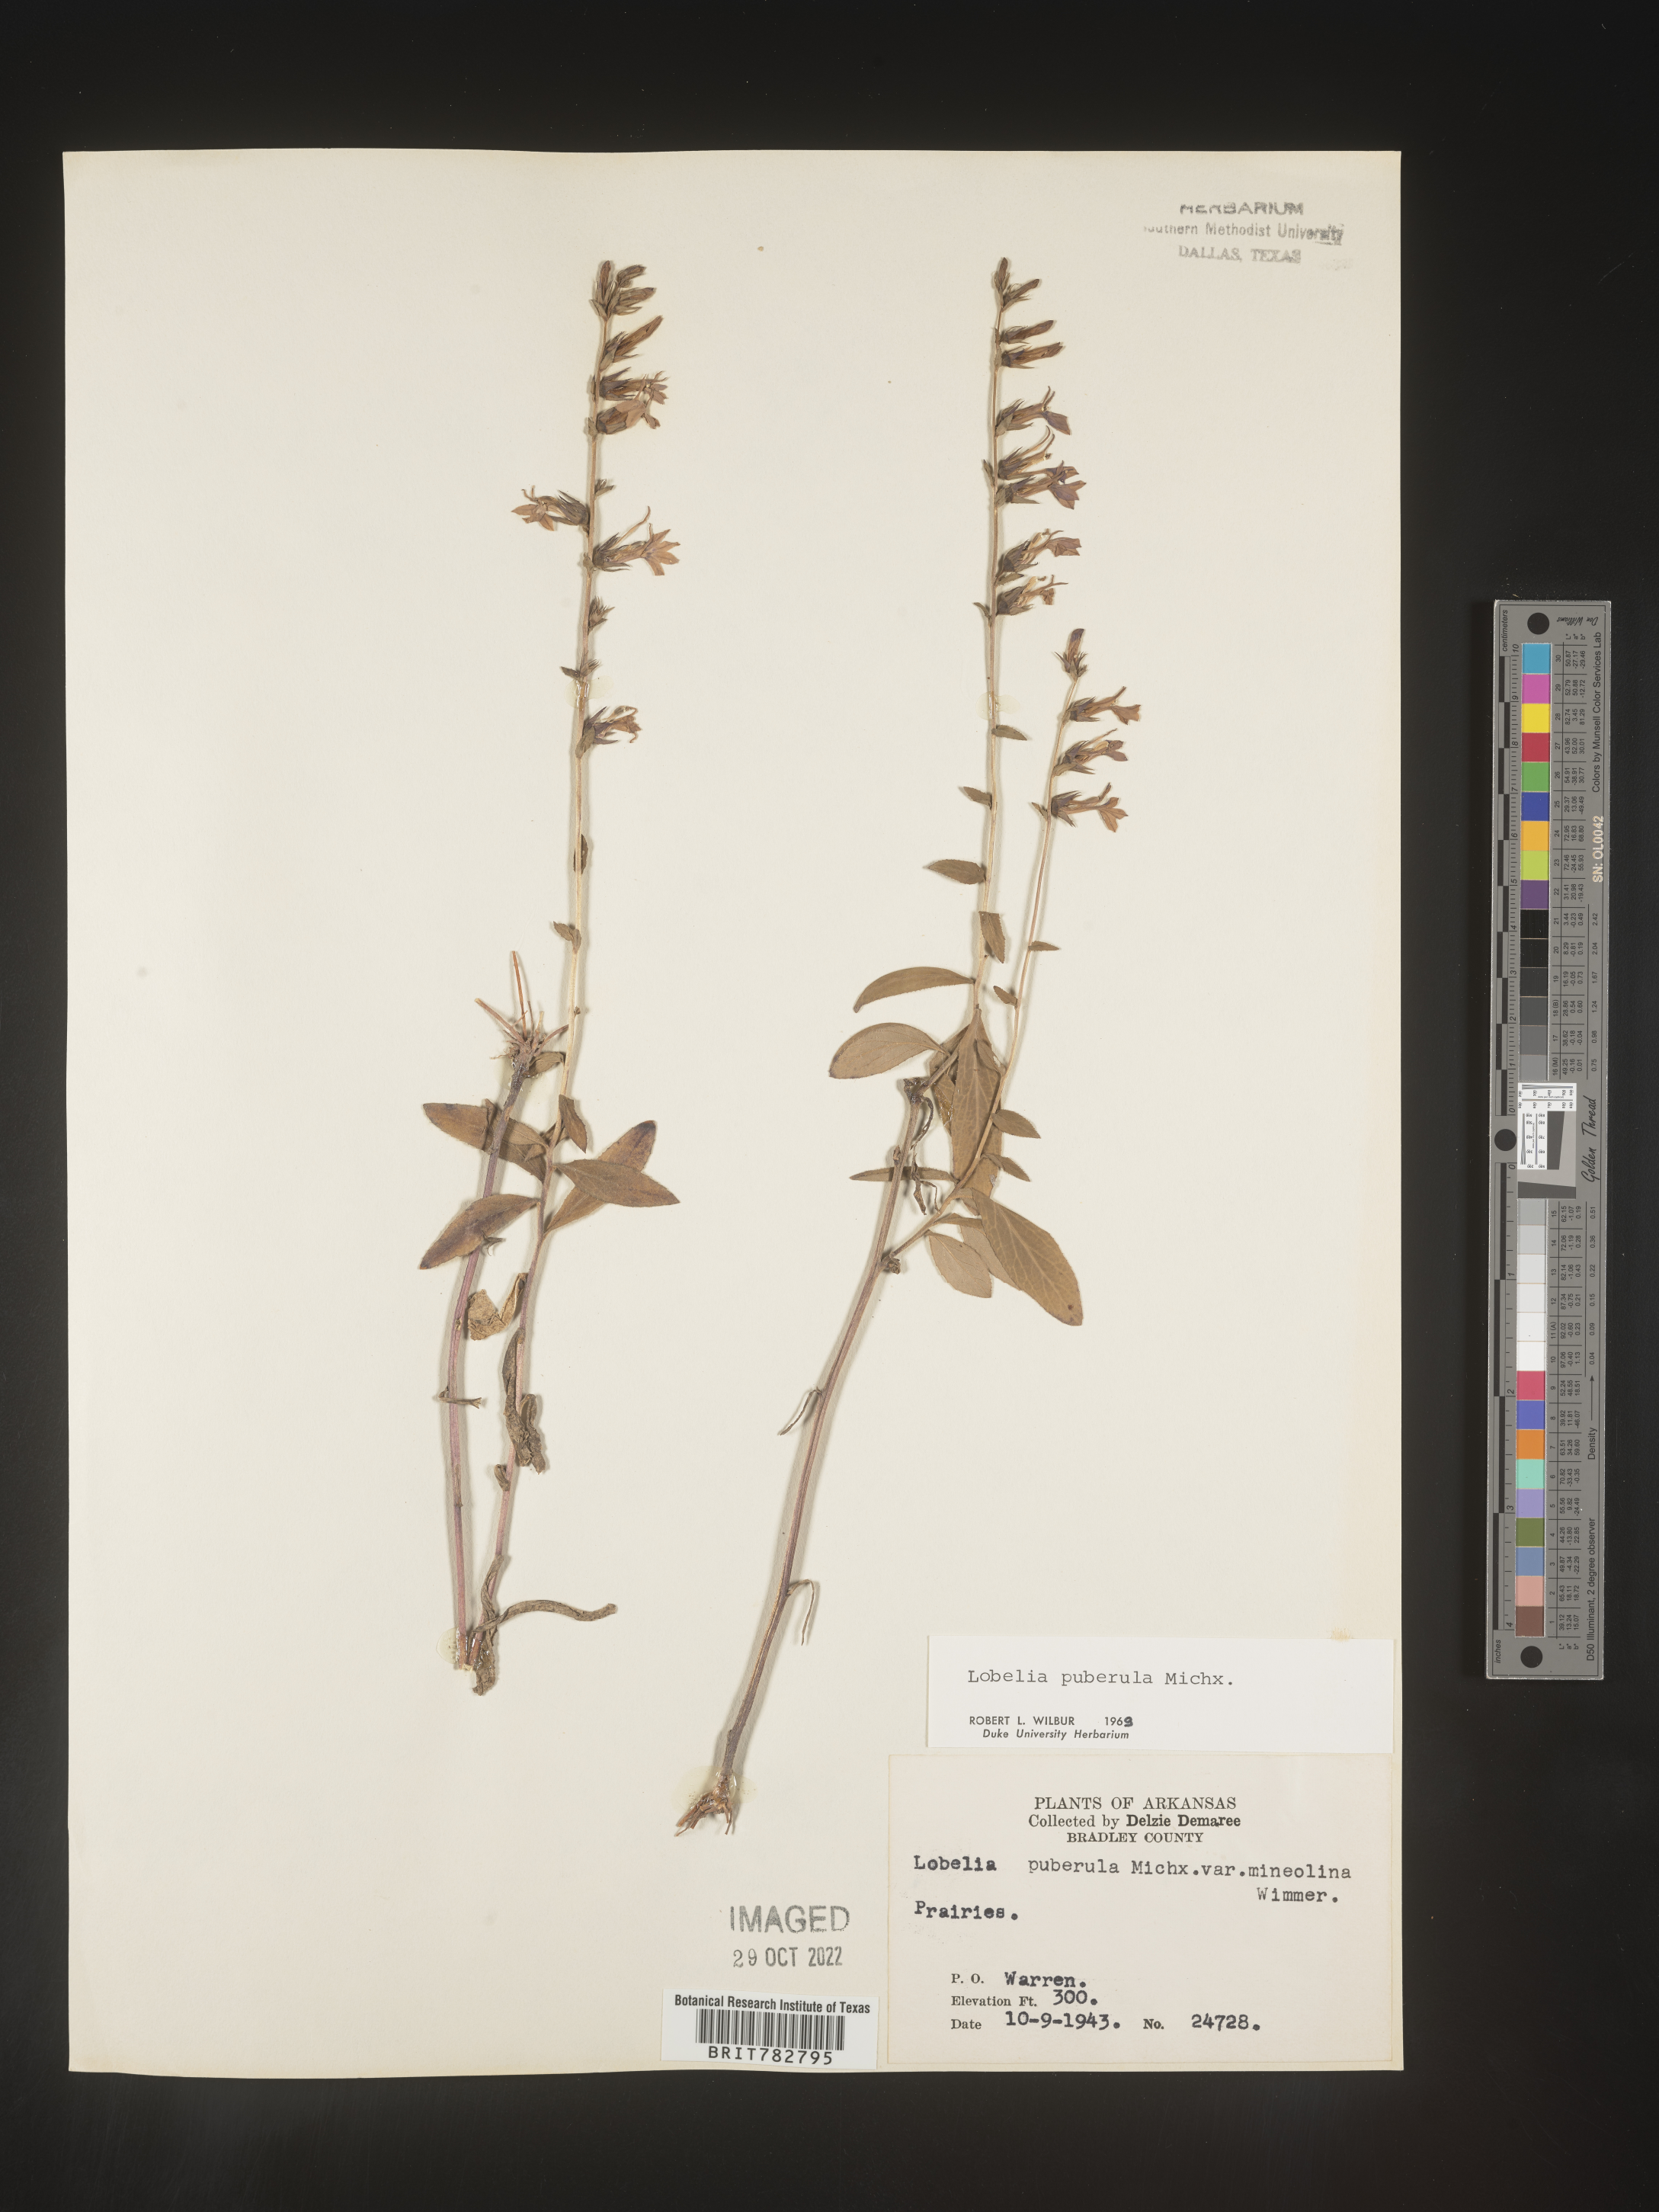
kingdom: Plantae
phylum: Tracheophyta
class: Magnoliopsida
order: Asterales
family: Campanulaceae
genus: Lobelia
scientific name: Lobelia puberula
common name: Purple dewdrop
